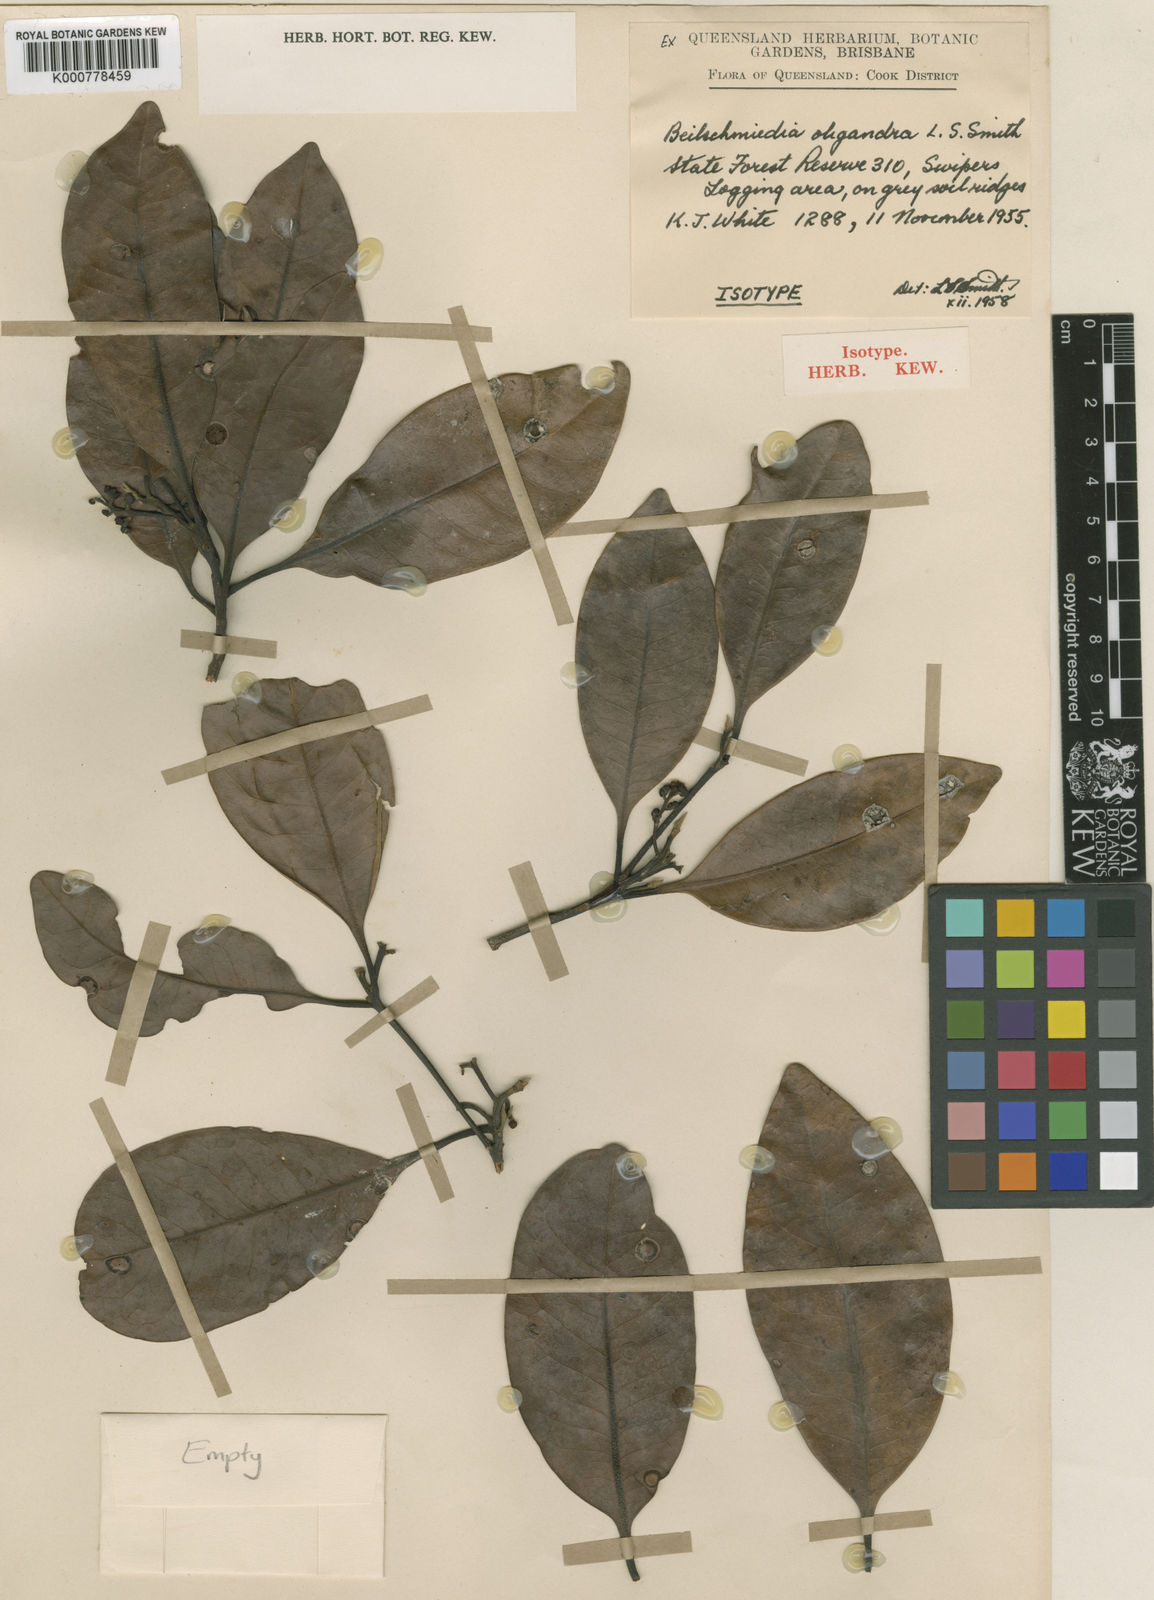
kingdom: Plantae
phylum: Tracheophyta
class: Magnoliopsida
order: Laurales
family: Lauraceae
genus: Beilschmiedia
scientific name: Beilschmiedia oligandra
